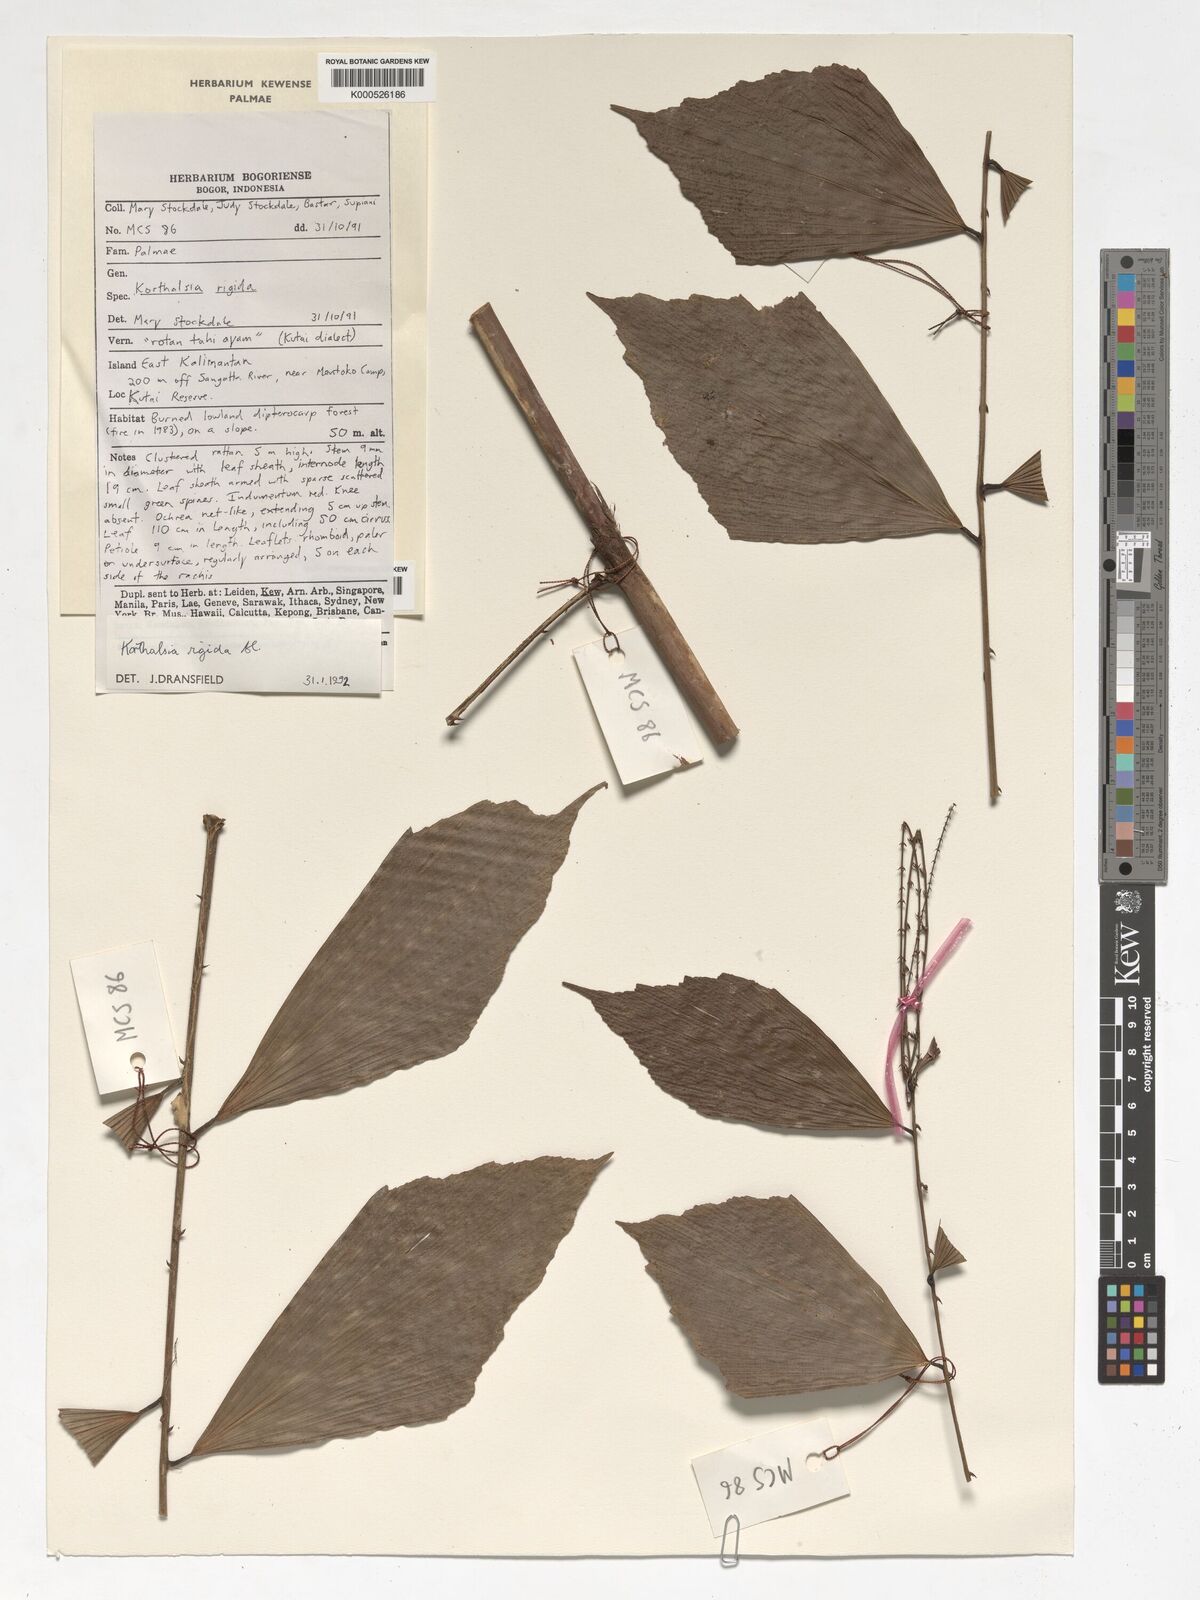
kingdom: Plantae
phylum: Tracheophyta
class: Liliopsida
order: Arecales
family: Arecaceae
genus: Korthalsia
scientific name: Korthalsia rigida
